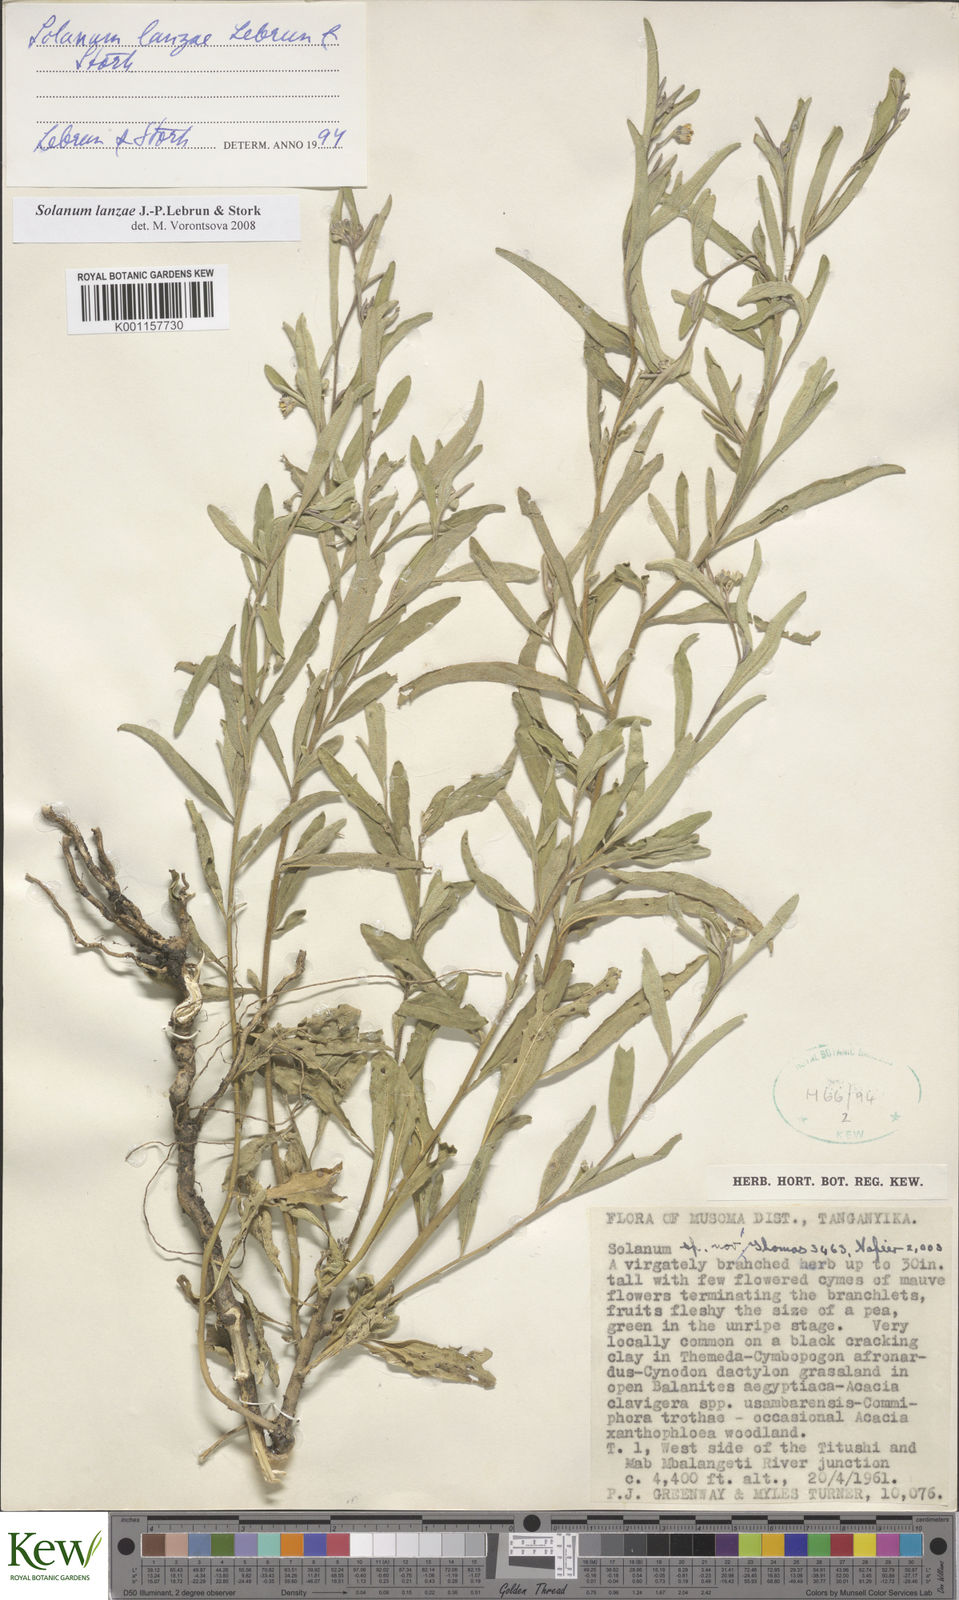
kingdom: Plantae
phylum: Tracheophyta
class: Magnoliopsida
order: Solanales
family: Solanaceae
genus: Solanum
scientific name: Solanum lanzae
